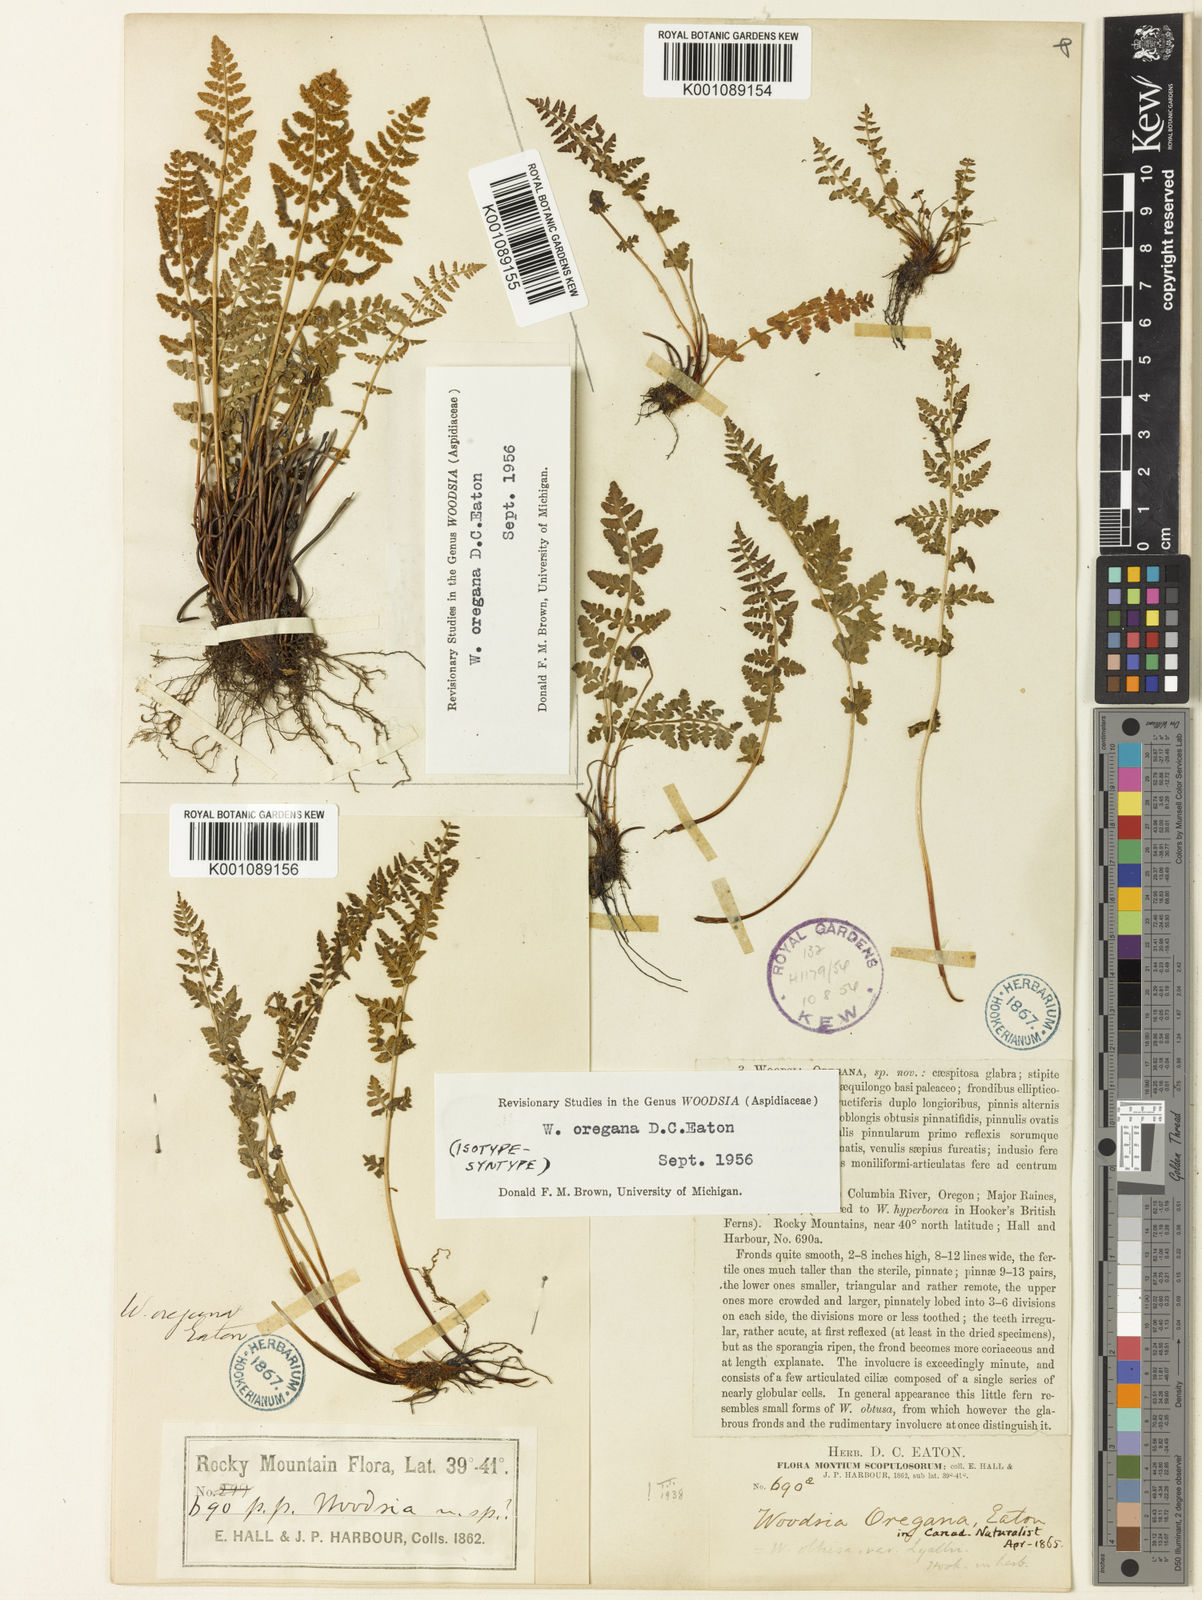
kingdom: Plantae
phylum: Tracheophyta
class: Polypodiopsida
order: Polypodiales
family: Woodsiaceae
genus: Physematium
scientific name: Physematium oreganum
